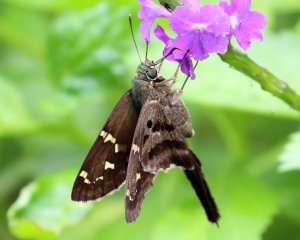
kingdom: Animalia
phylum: Arthropoda
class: Insecta
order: Lepidoptera
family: Hesperiidae
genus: Urbanus
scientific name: Urbanus proteus
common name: Long-tailed Skipper
